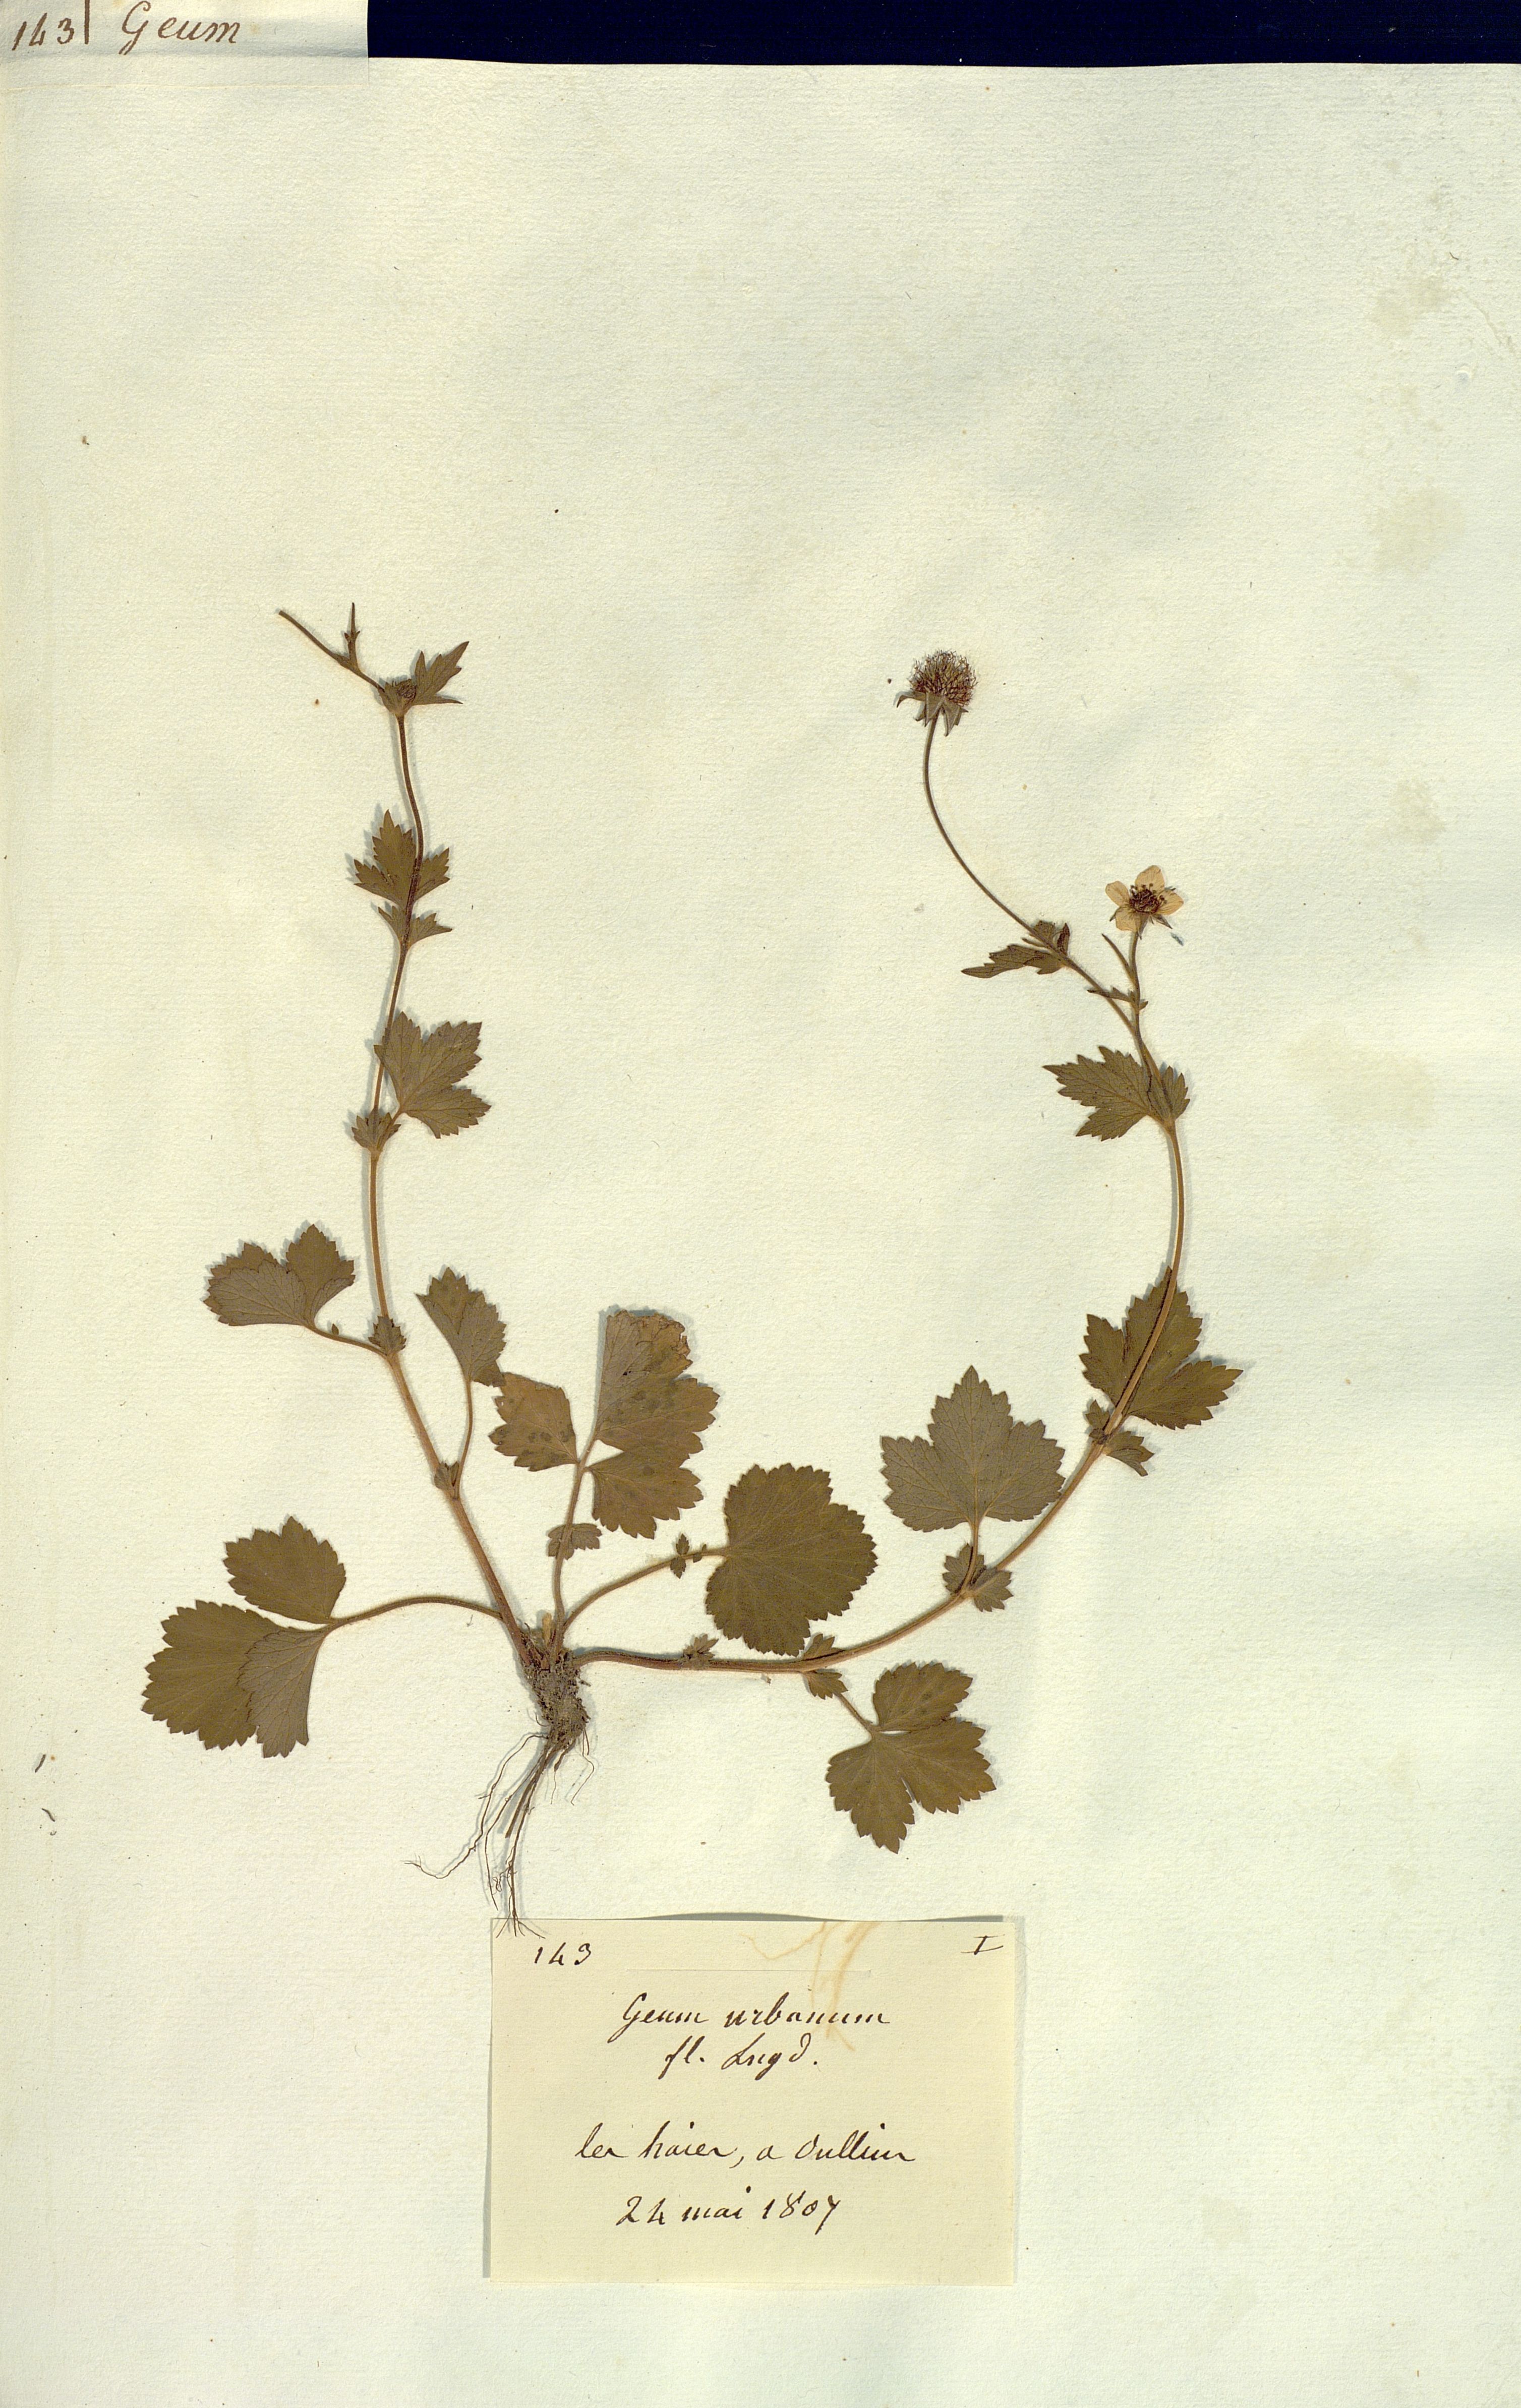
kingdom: Plantae
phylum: Tracheophyta
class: Magnoliopsida
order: Rosales
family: Rosaceae
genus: Geum
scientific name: Geum urbanum
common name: Wood avens
